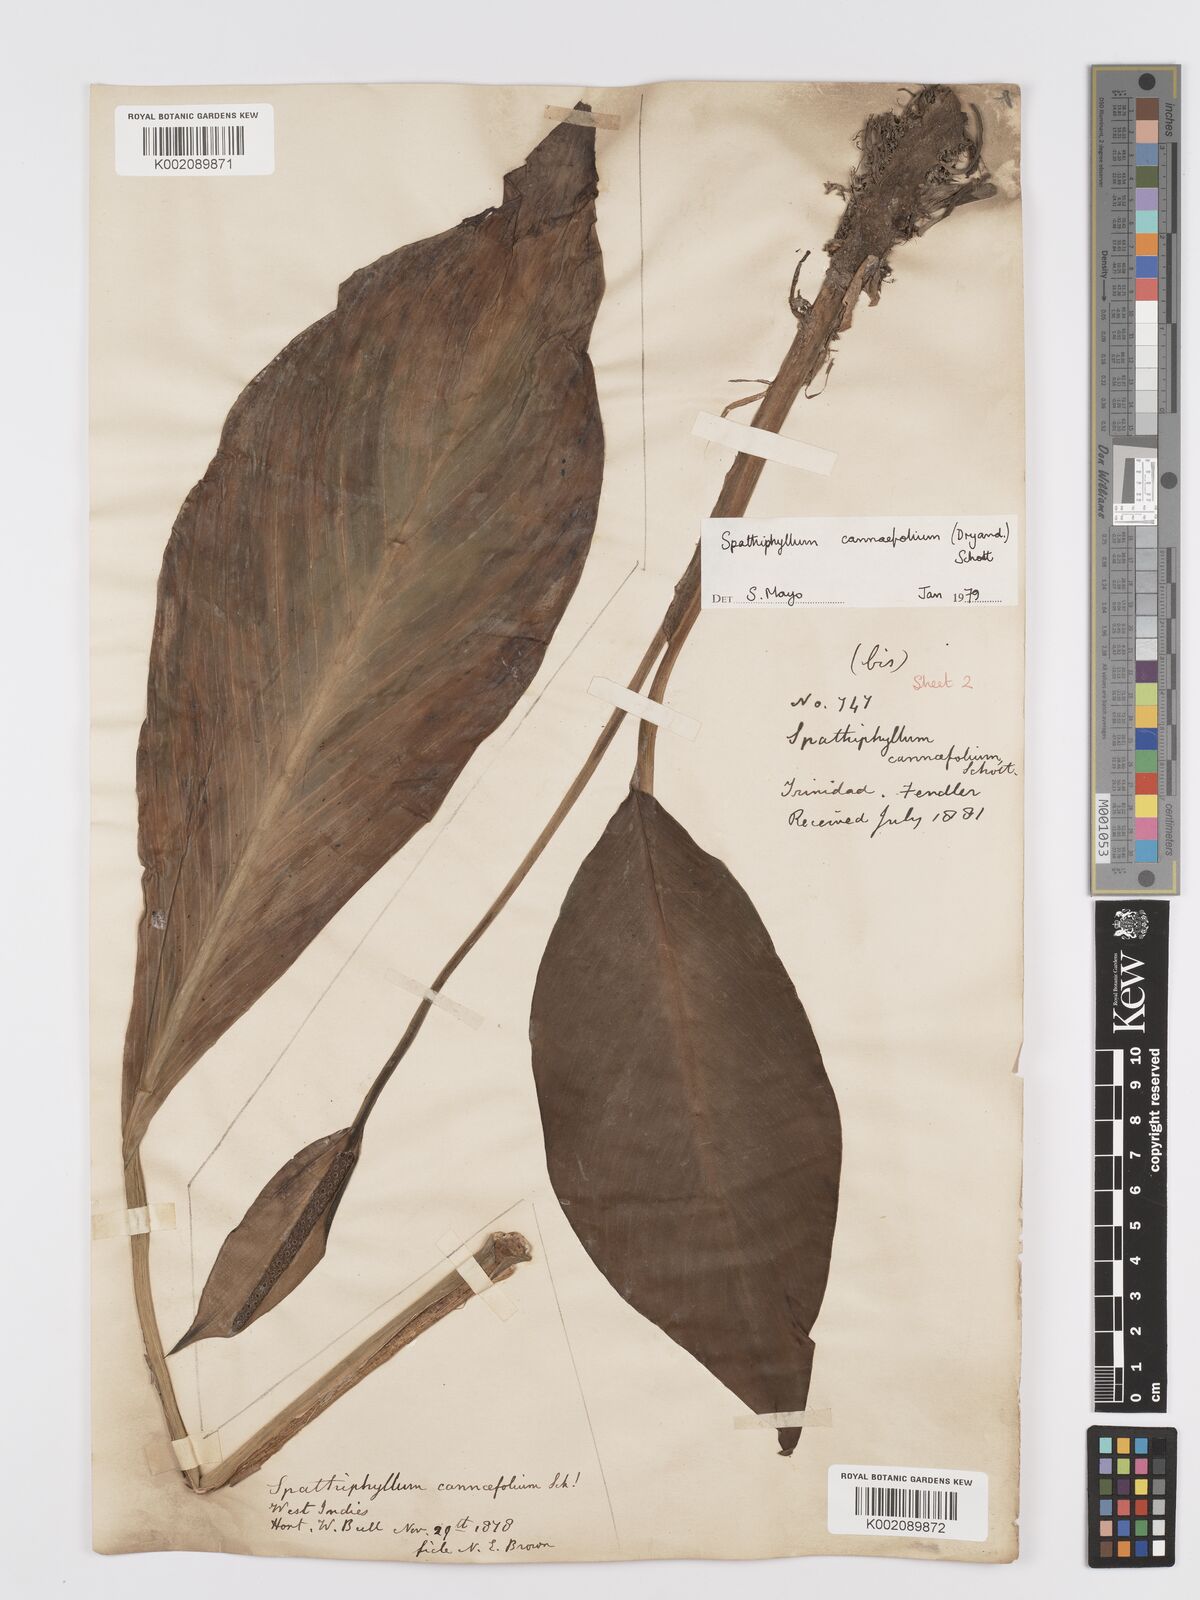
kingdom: Plantae
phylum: Tracheophyta
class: Liliopsida
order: Alismatales
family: Araceae
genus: Spathiphyllum
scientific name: Spathiphyllum cannifolium
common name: Spatheflower
